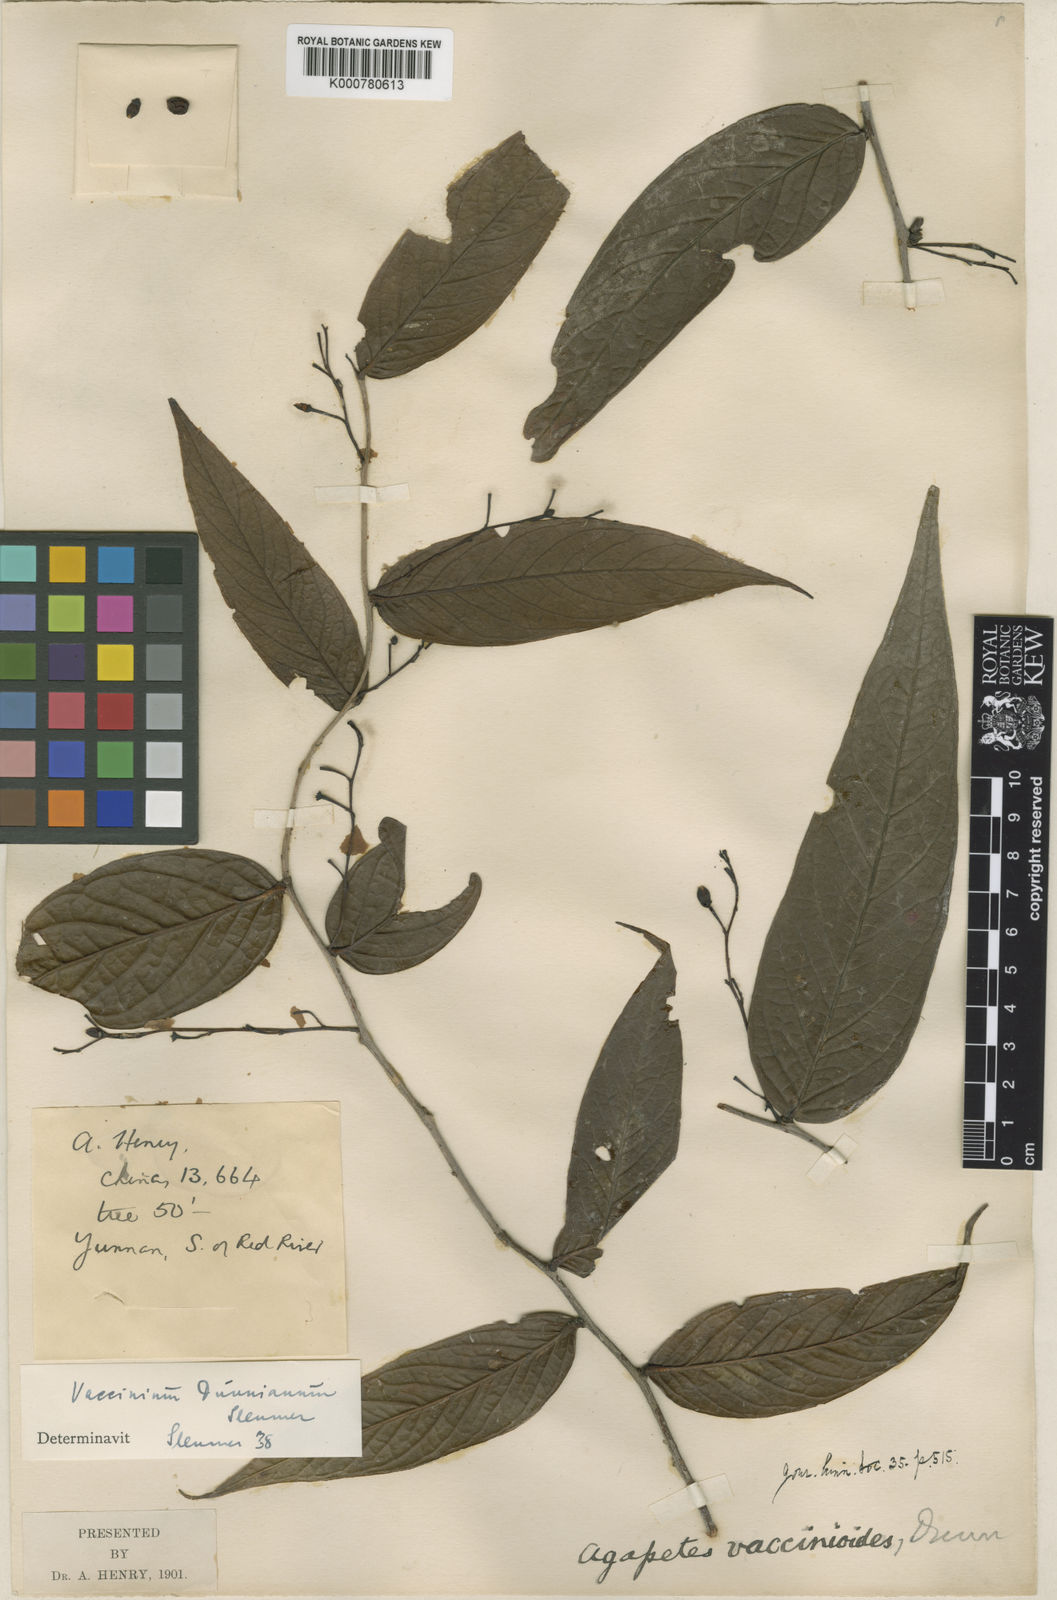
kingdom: Plantae
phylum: Tracheophyta
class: Magnoliopsida
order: Ericales
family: Ericaceae
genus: Vaccinium
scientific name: Vaccinium dunnianum
